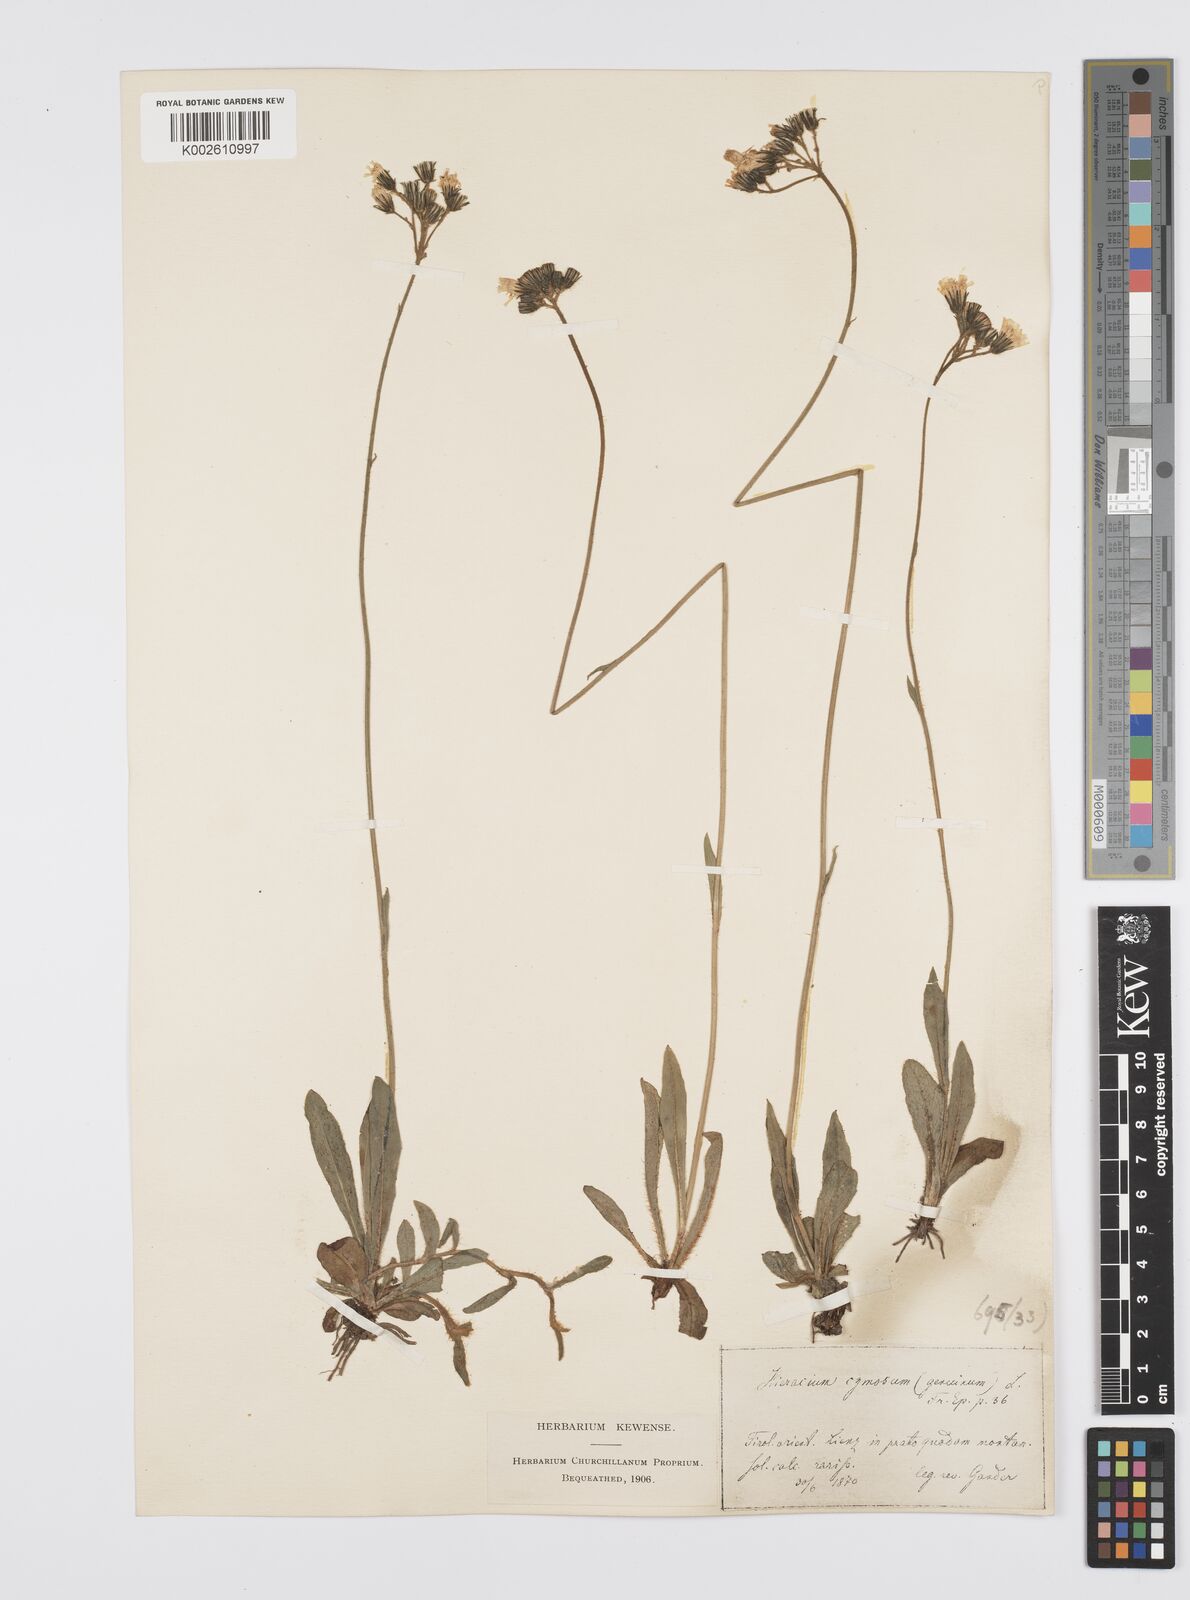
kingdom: Plantae
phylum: Tracheophyta
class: Magnoliopsida
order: Asterales
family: Asteraceae
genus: Pilosella
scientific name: Pilosella piloselloides
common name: Glaucous king-devil
